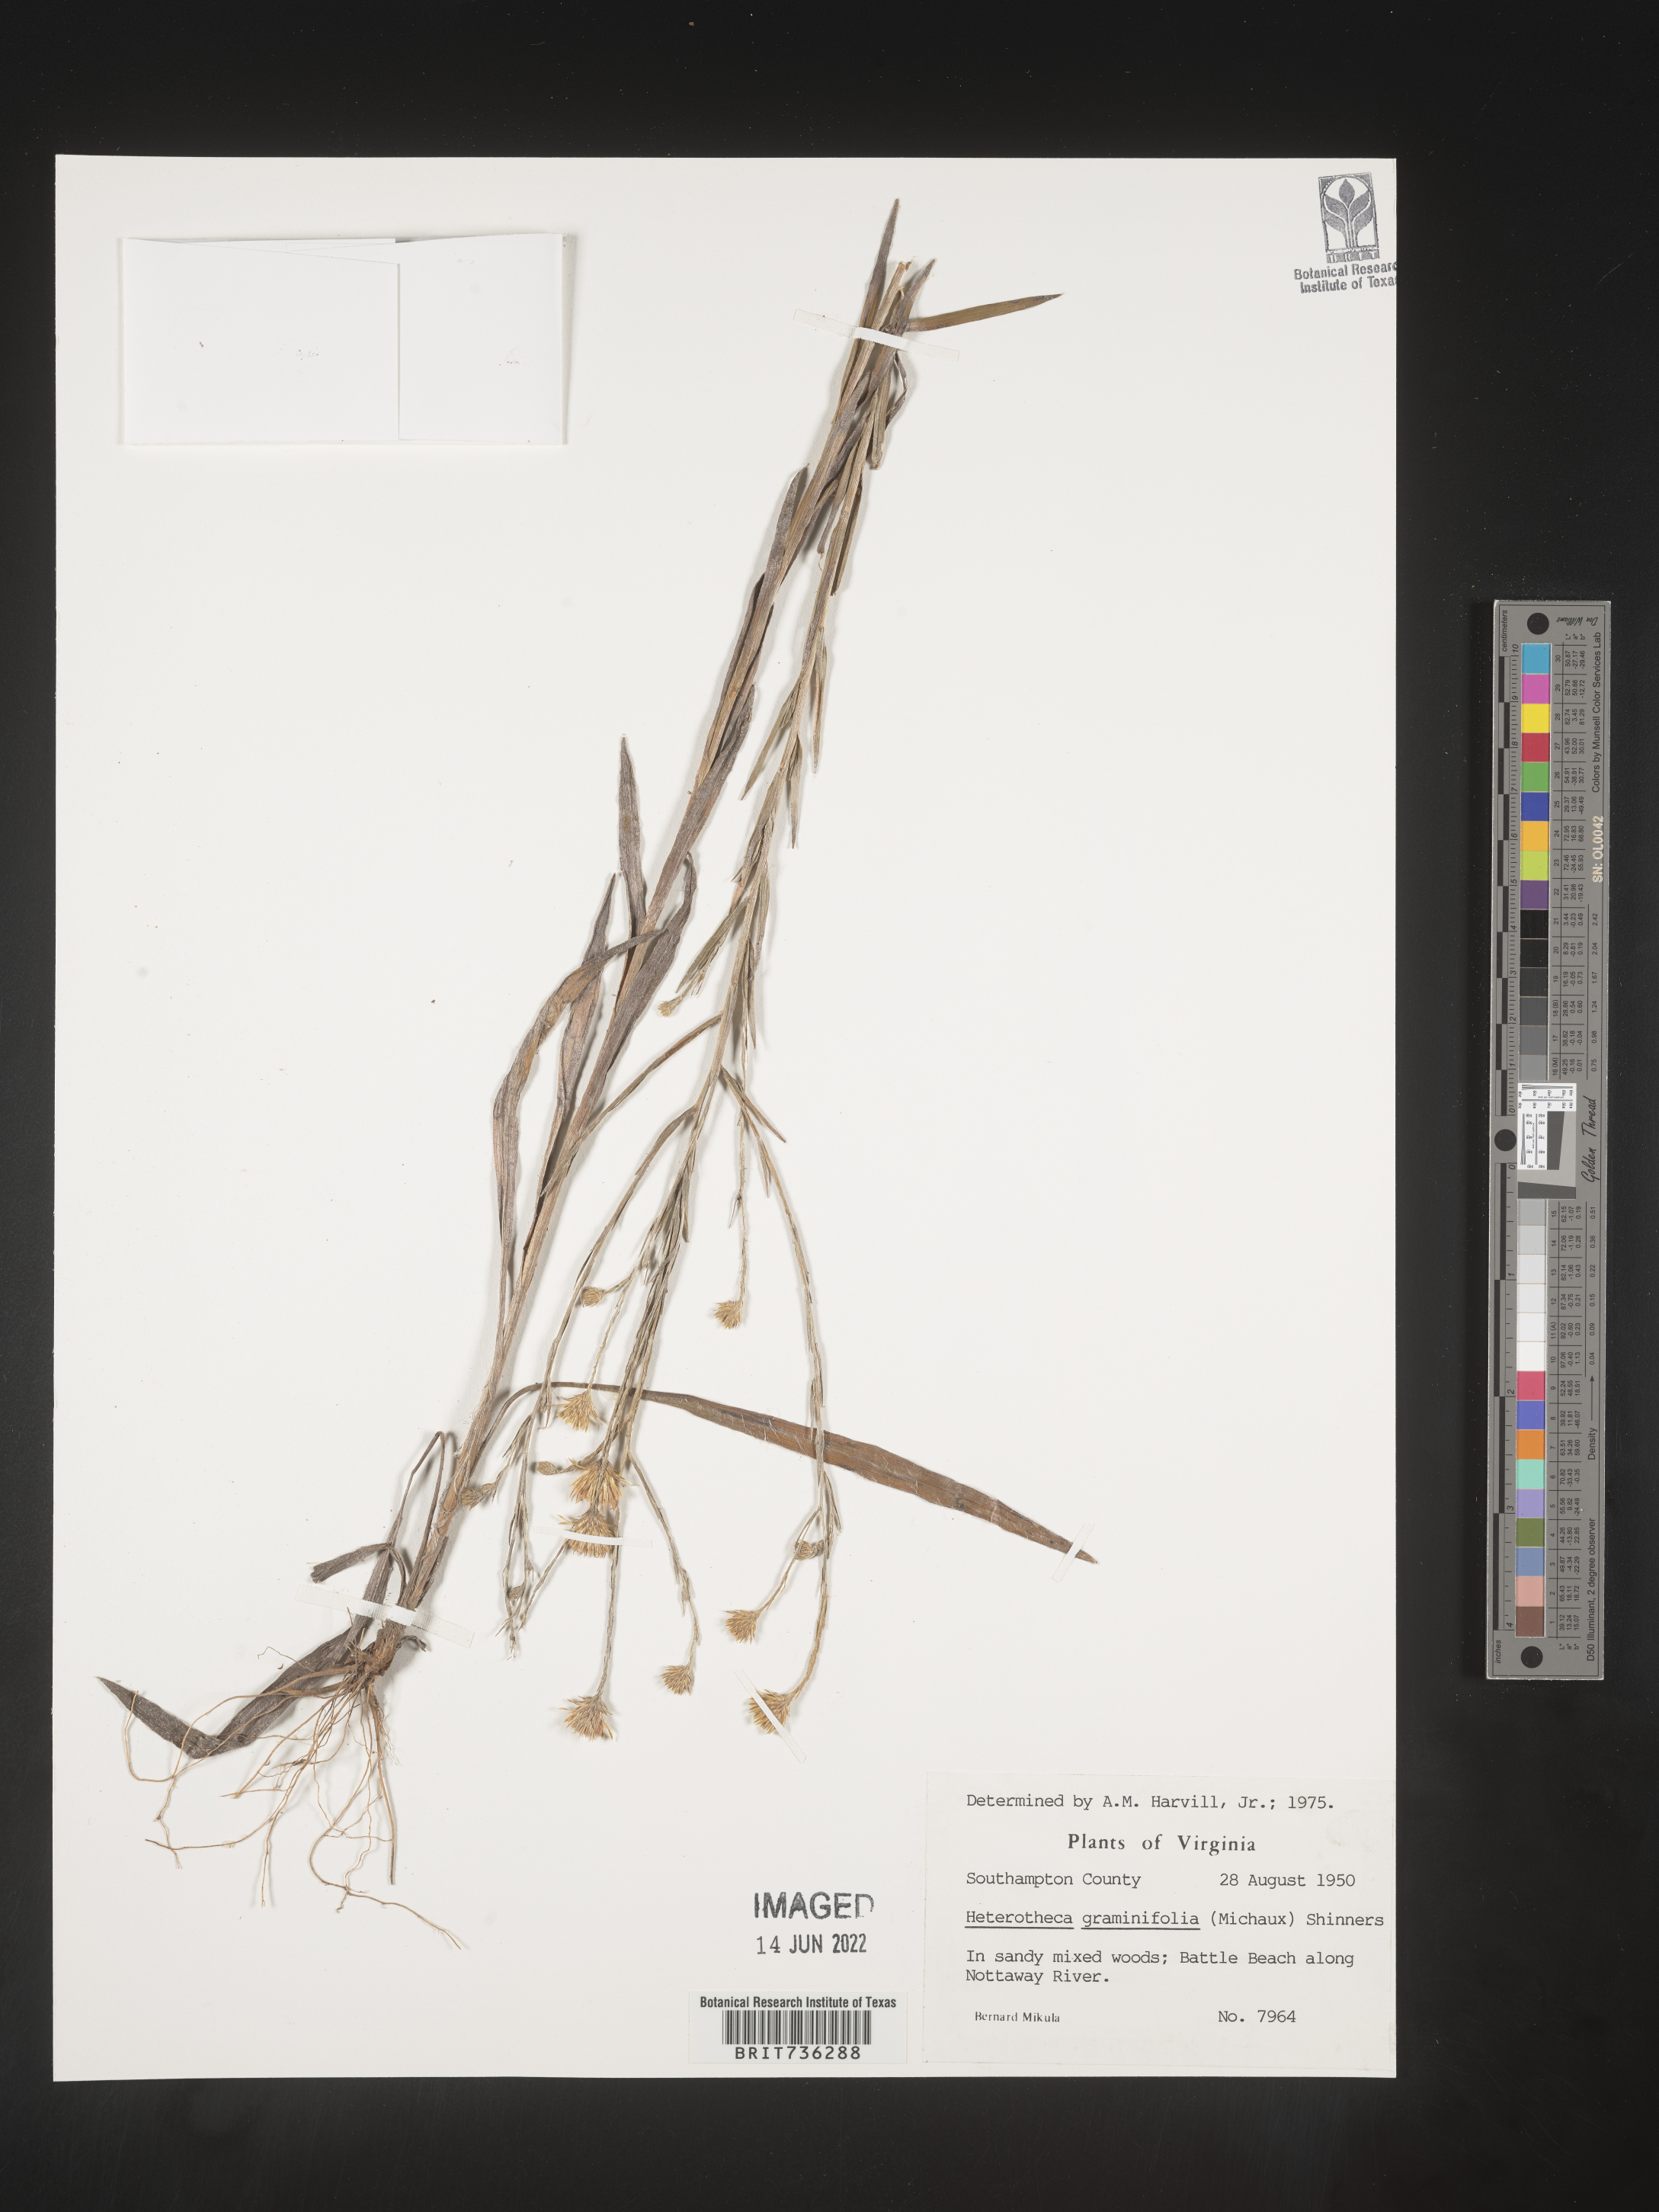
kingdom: Plantae
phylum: Tracheophyta
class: Magnoliopsida
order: Asterales
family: Asteraceae
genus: Pityopsis
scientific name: Pityopsis graminifolia
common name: Grass-leaf golden-aster
